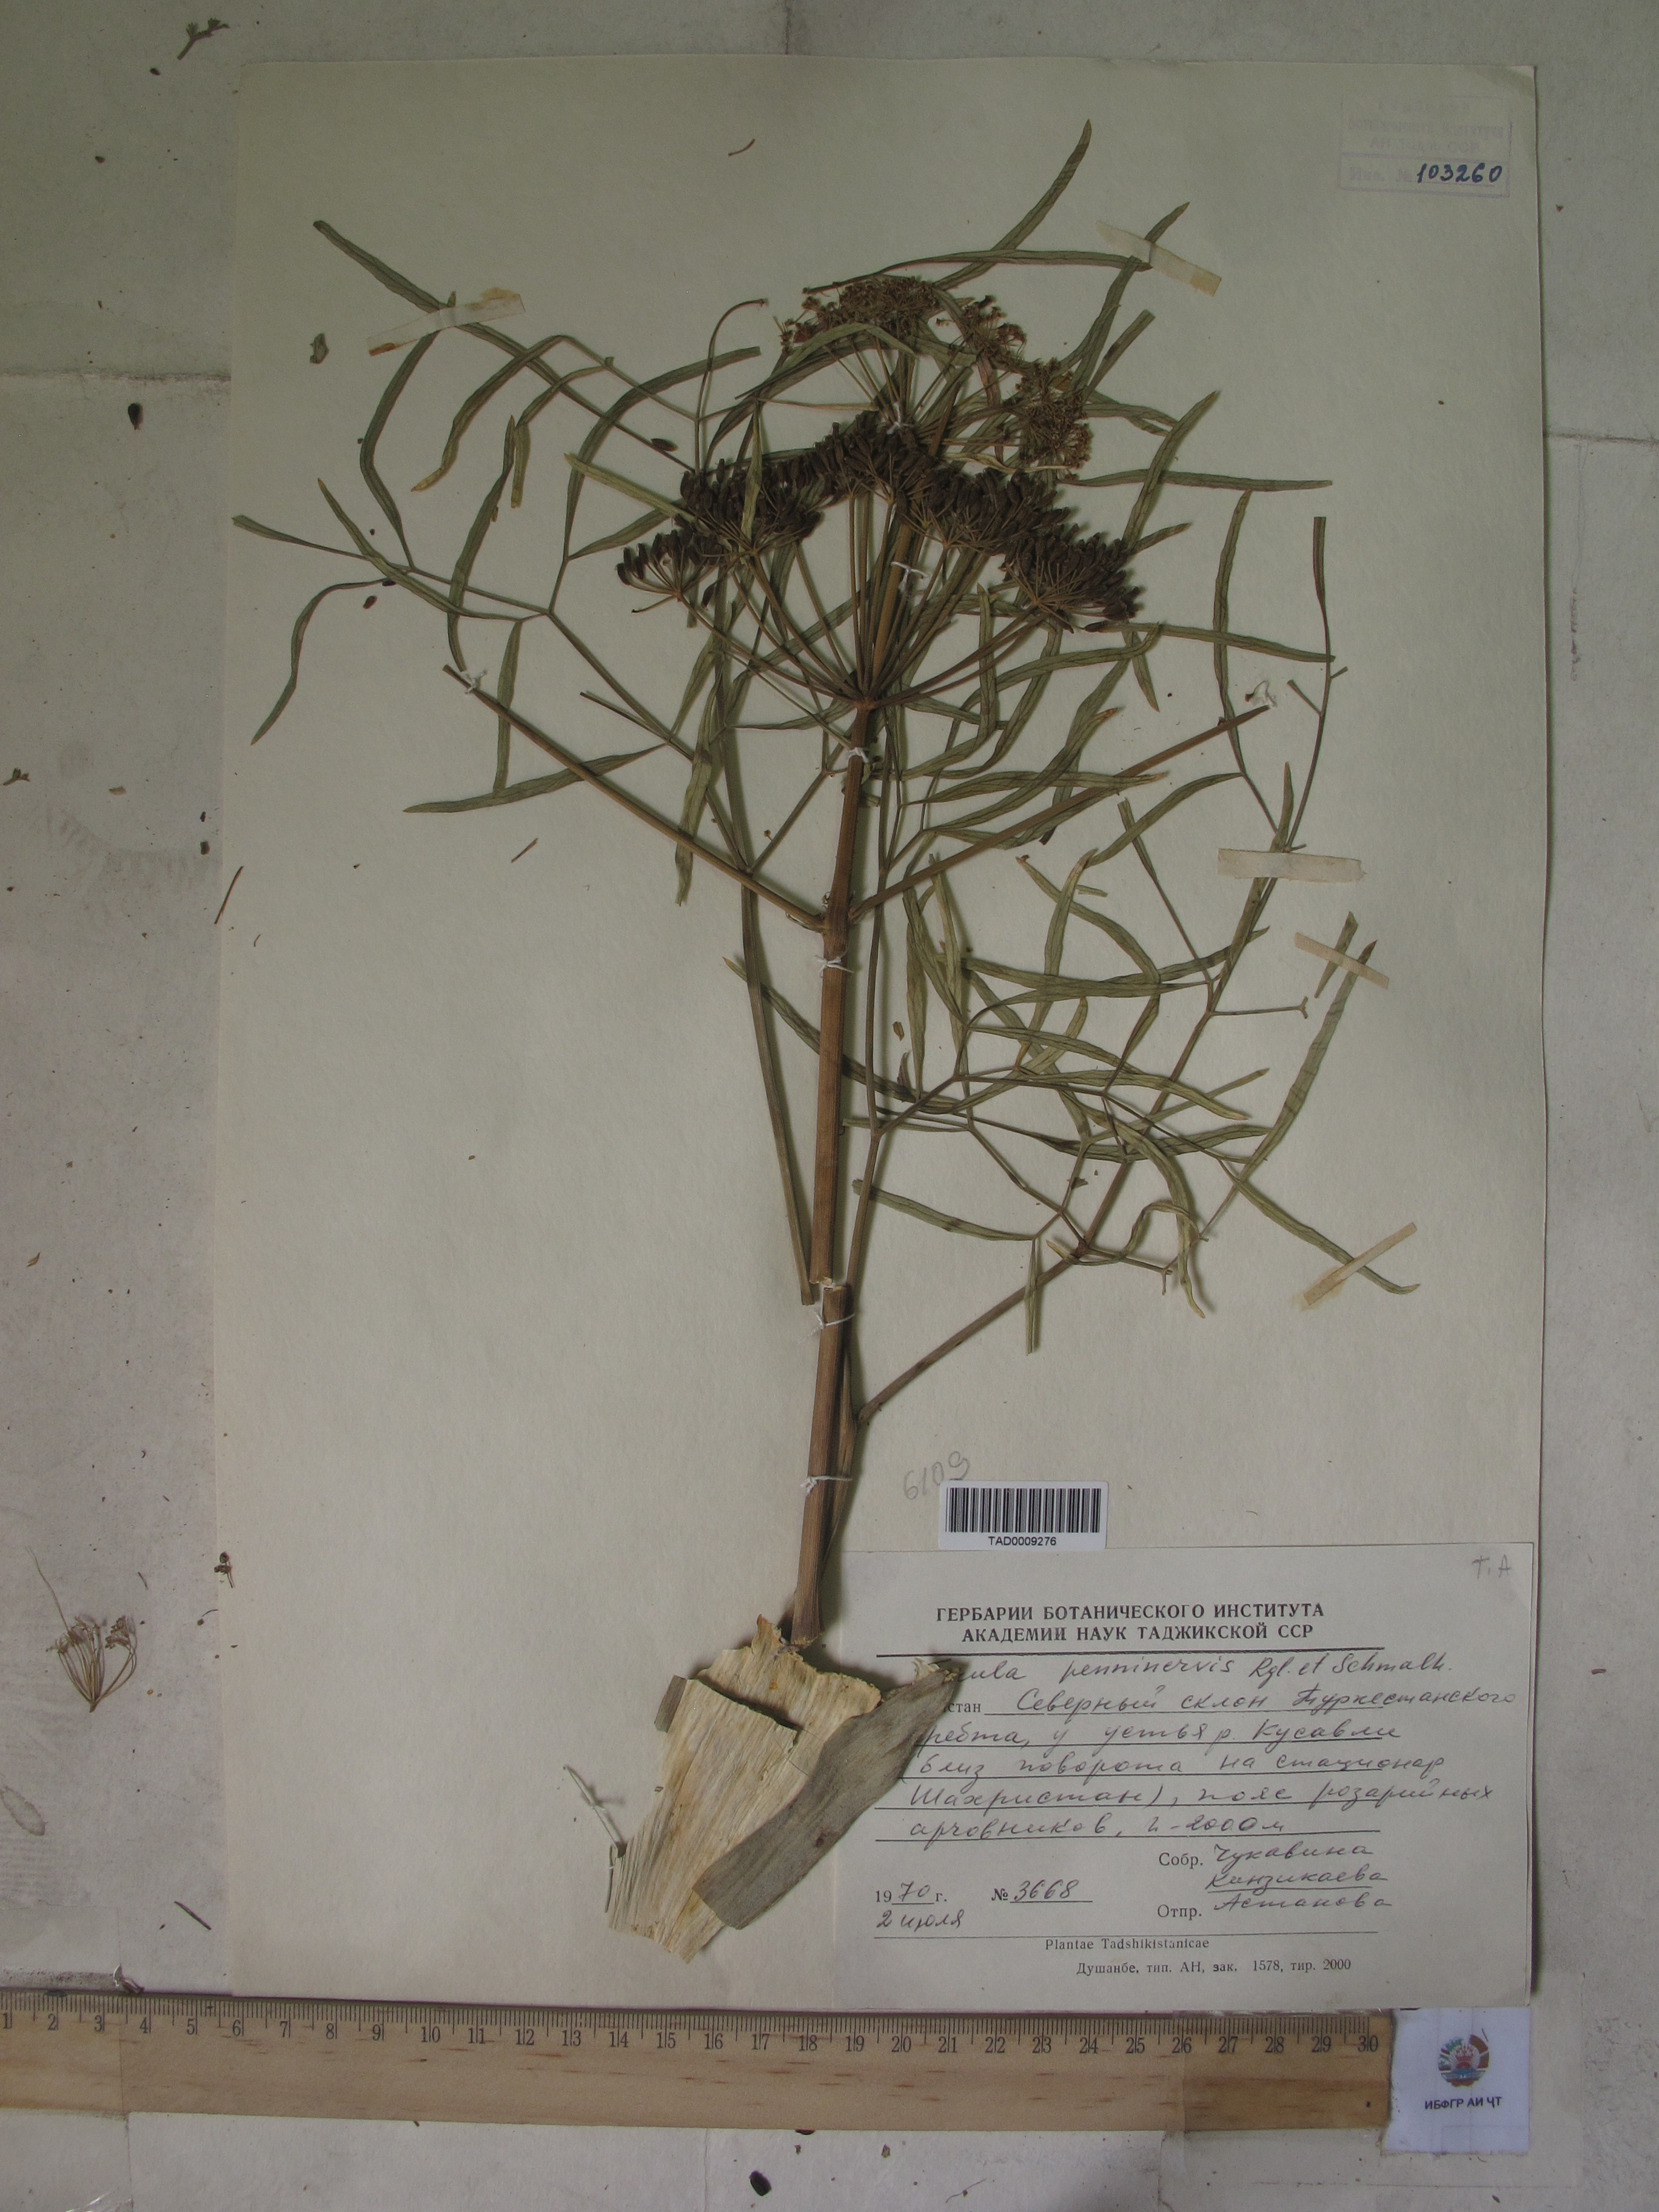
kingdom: Plantae
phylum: Tracheophyta
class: Magnoliopsida
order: Apiales
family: Apiaceae
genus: Ferula
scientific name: Ferula
